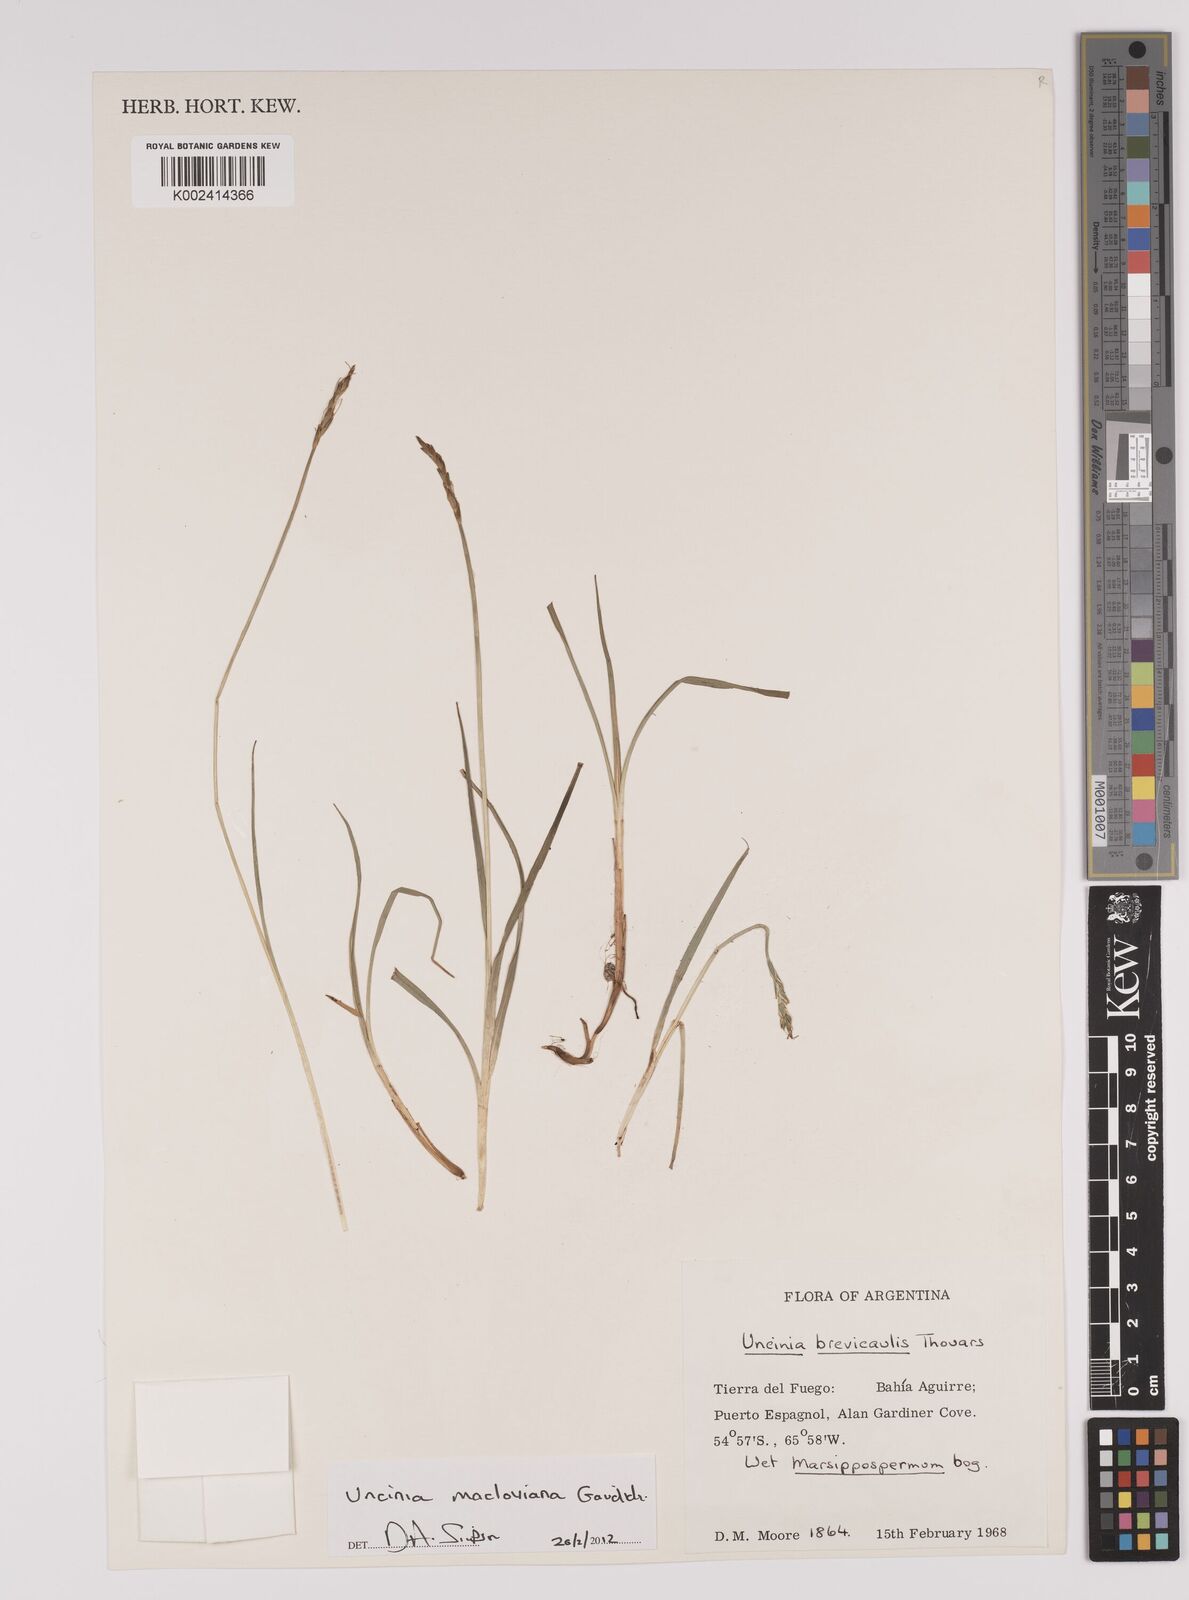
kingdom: Plantae
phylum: Tracheophyta
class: Liliopsida
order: Poales
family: Cyperaceae
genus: Carex
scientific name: Carex delacosta
